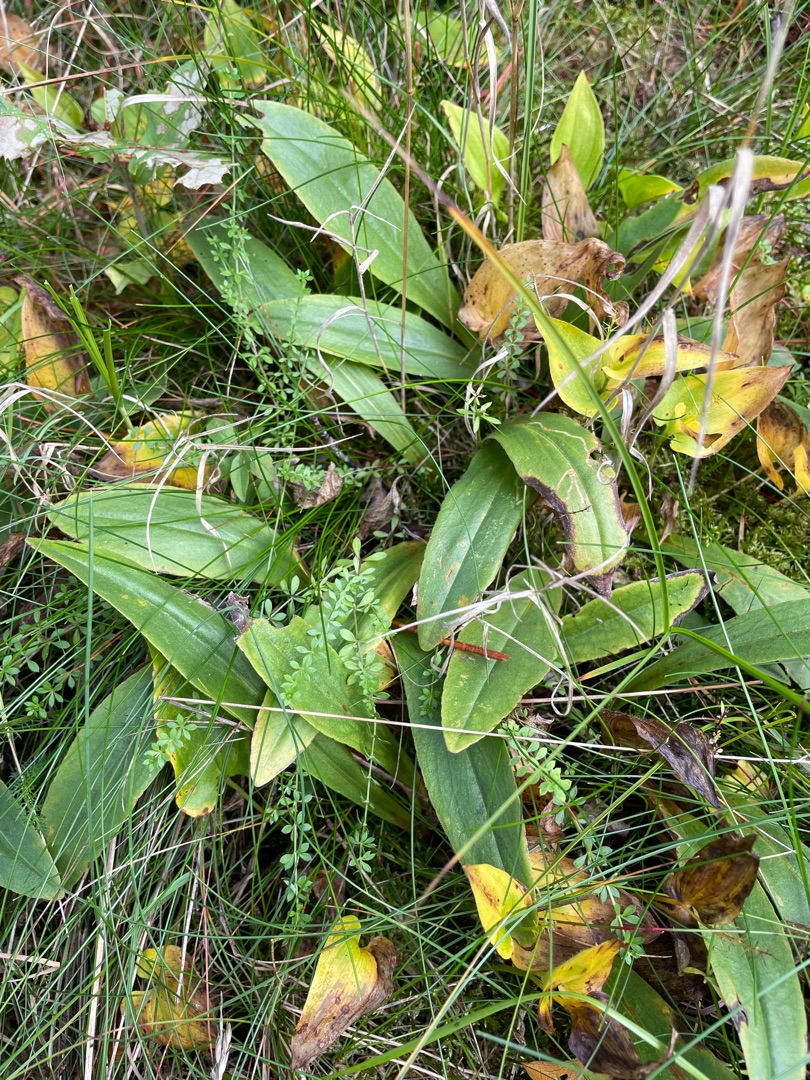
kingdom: Plantae
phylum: Tracheophyta
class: Magnoliopsida
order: Asterales
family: Asteraceae
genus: Arnica
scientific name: Arnica montana
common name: Guldblomme
